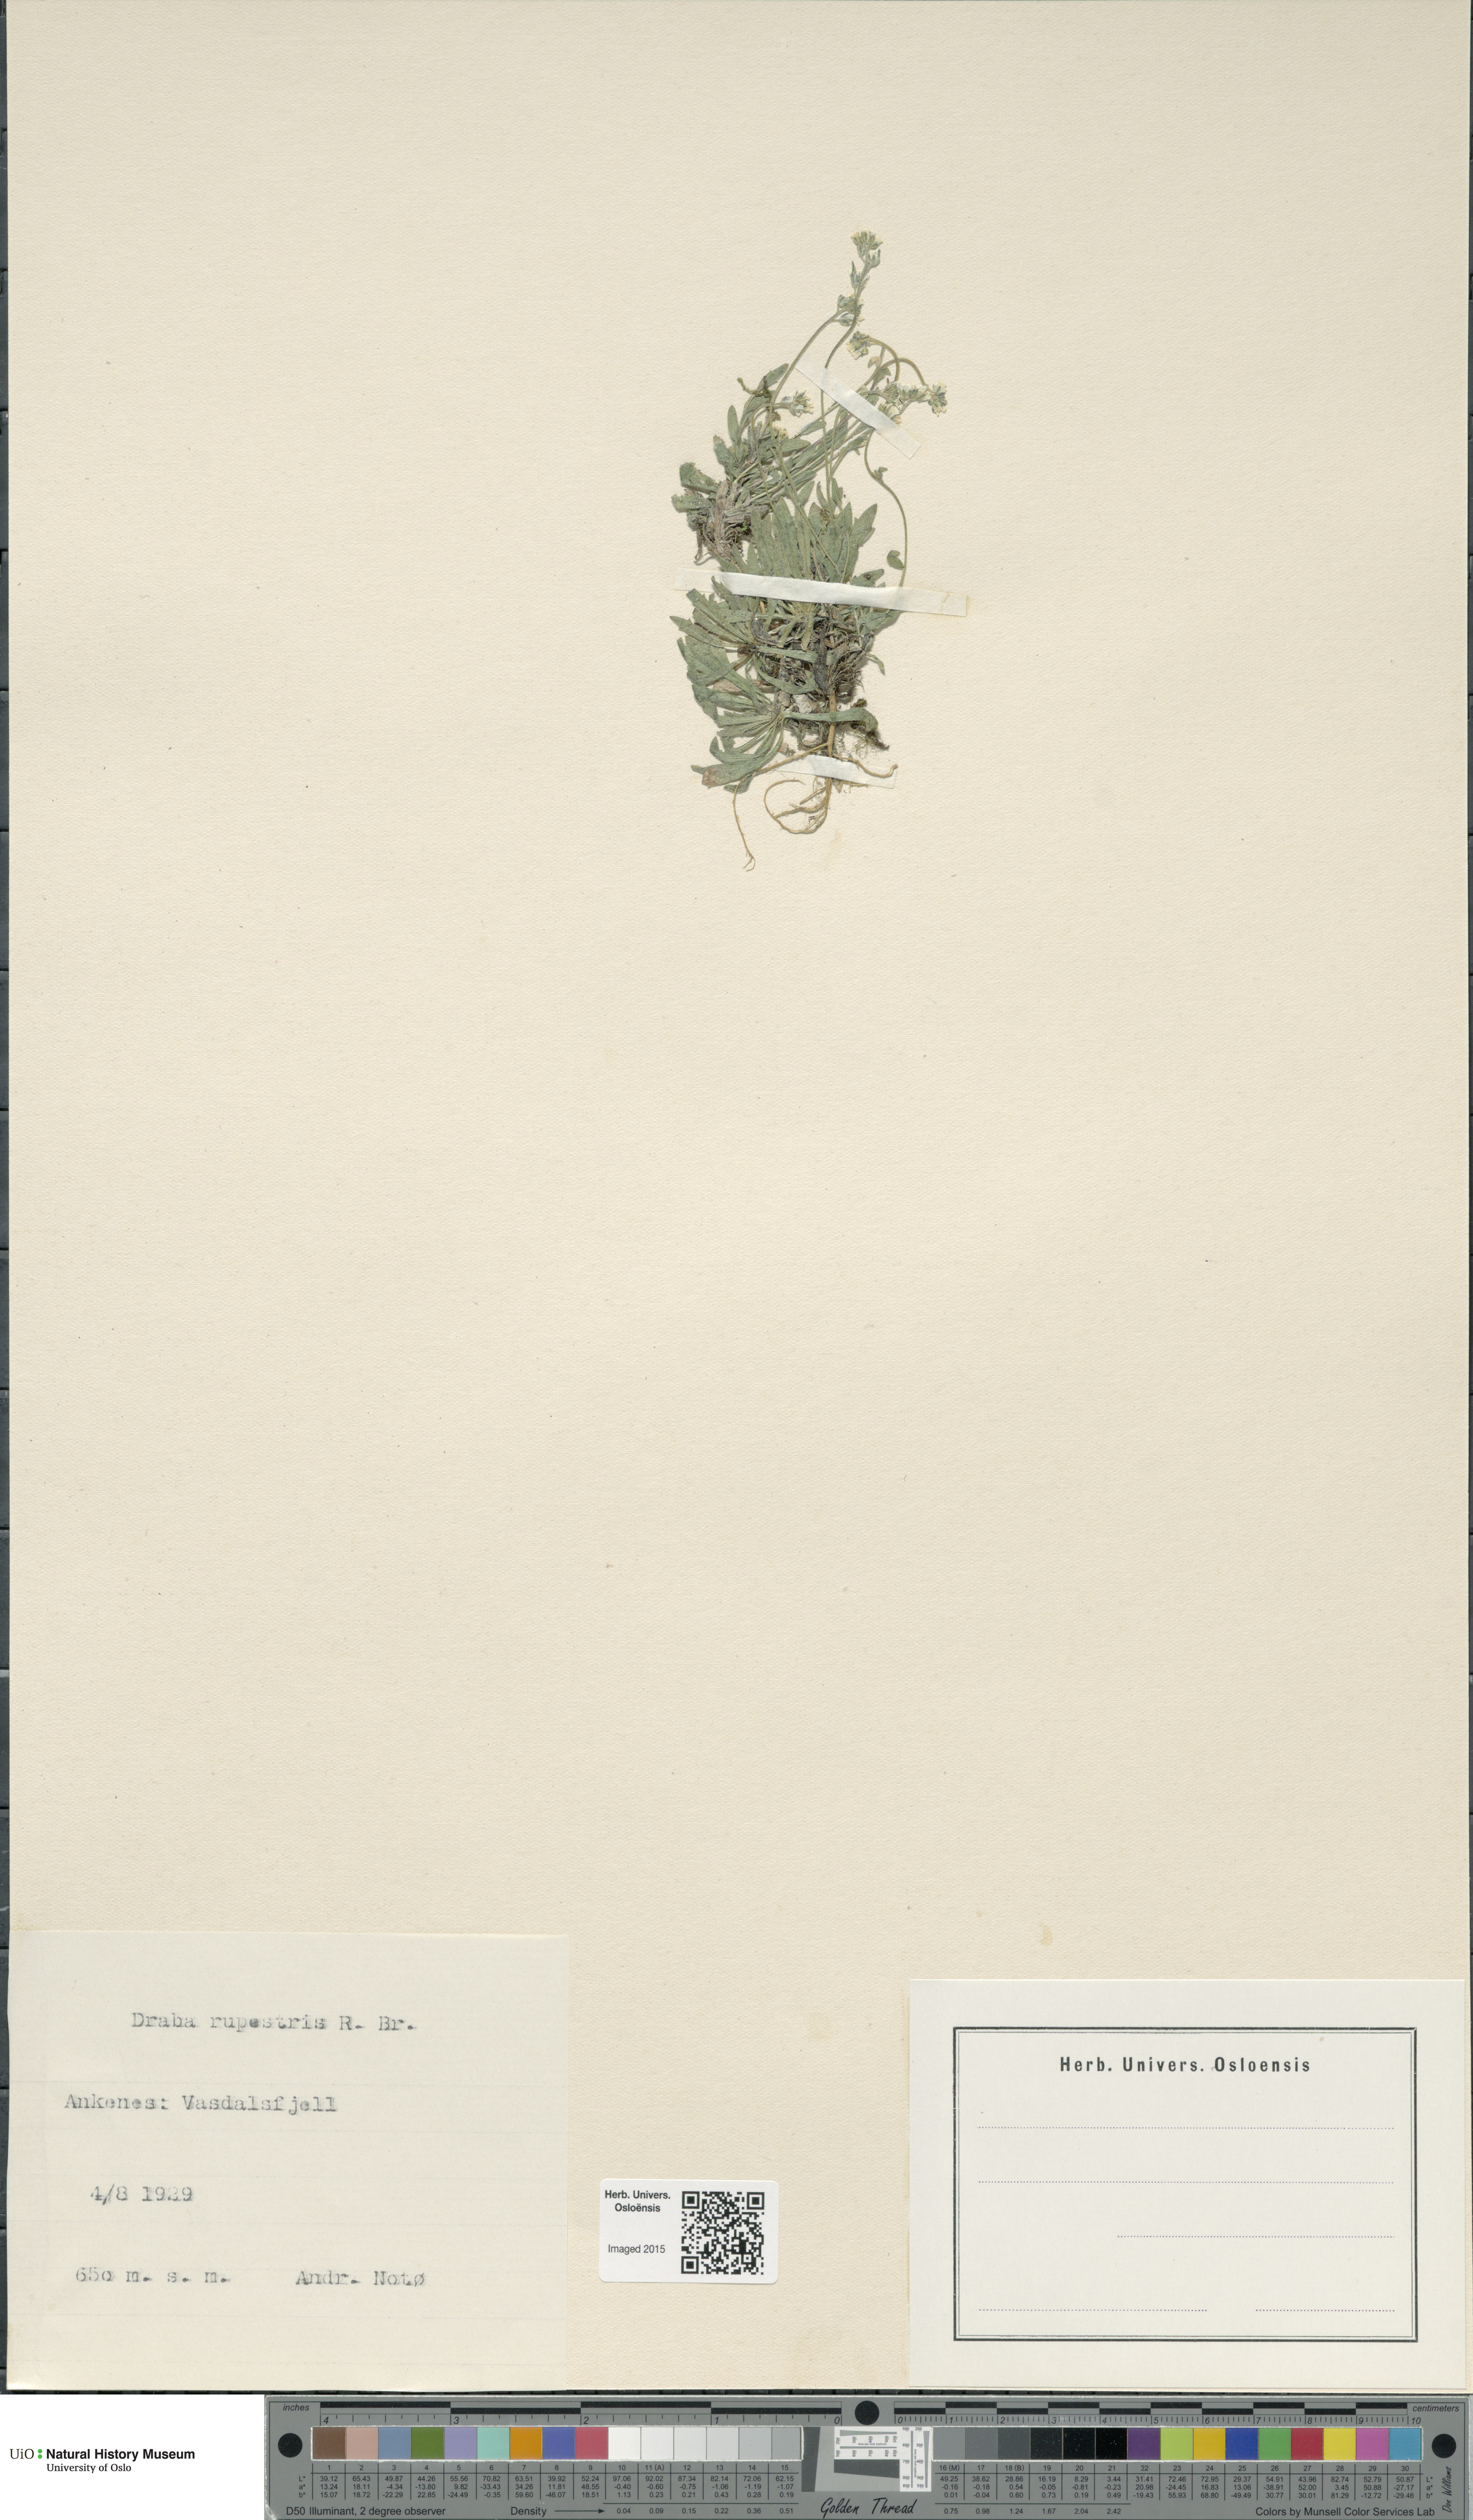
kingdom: Plantae
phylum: Tracheophyta
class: Magnoliopsida
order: Brassicales
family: Brassicaceae
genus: Draba
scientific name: Draba norvegica
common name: Rock whitlowgrass
